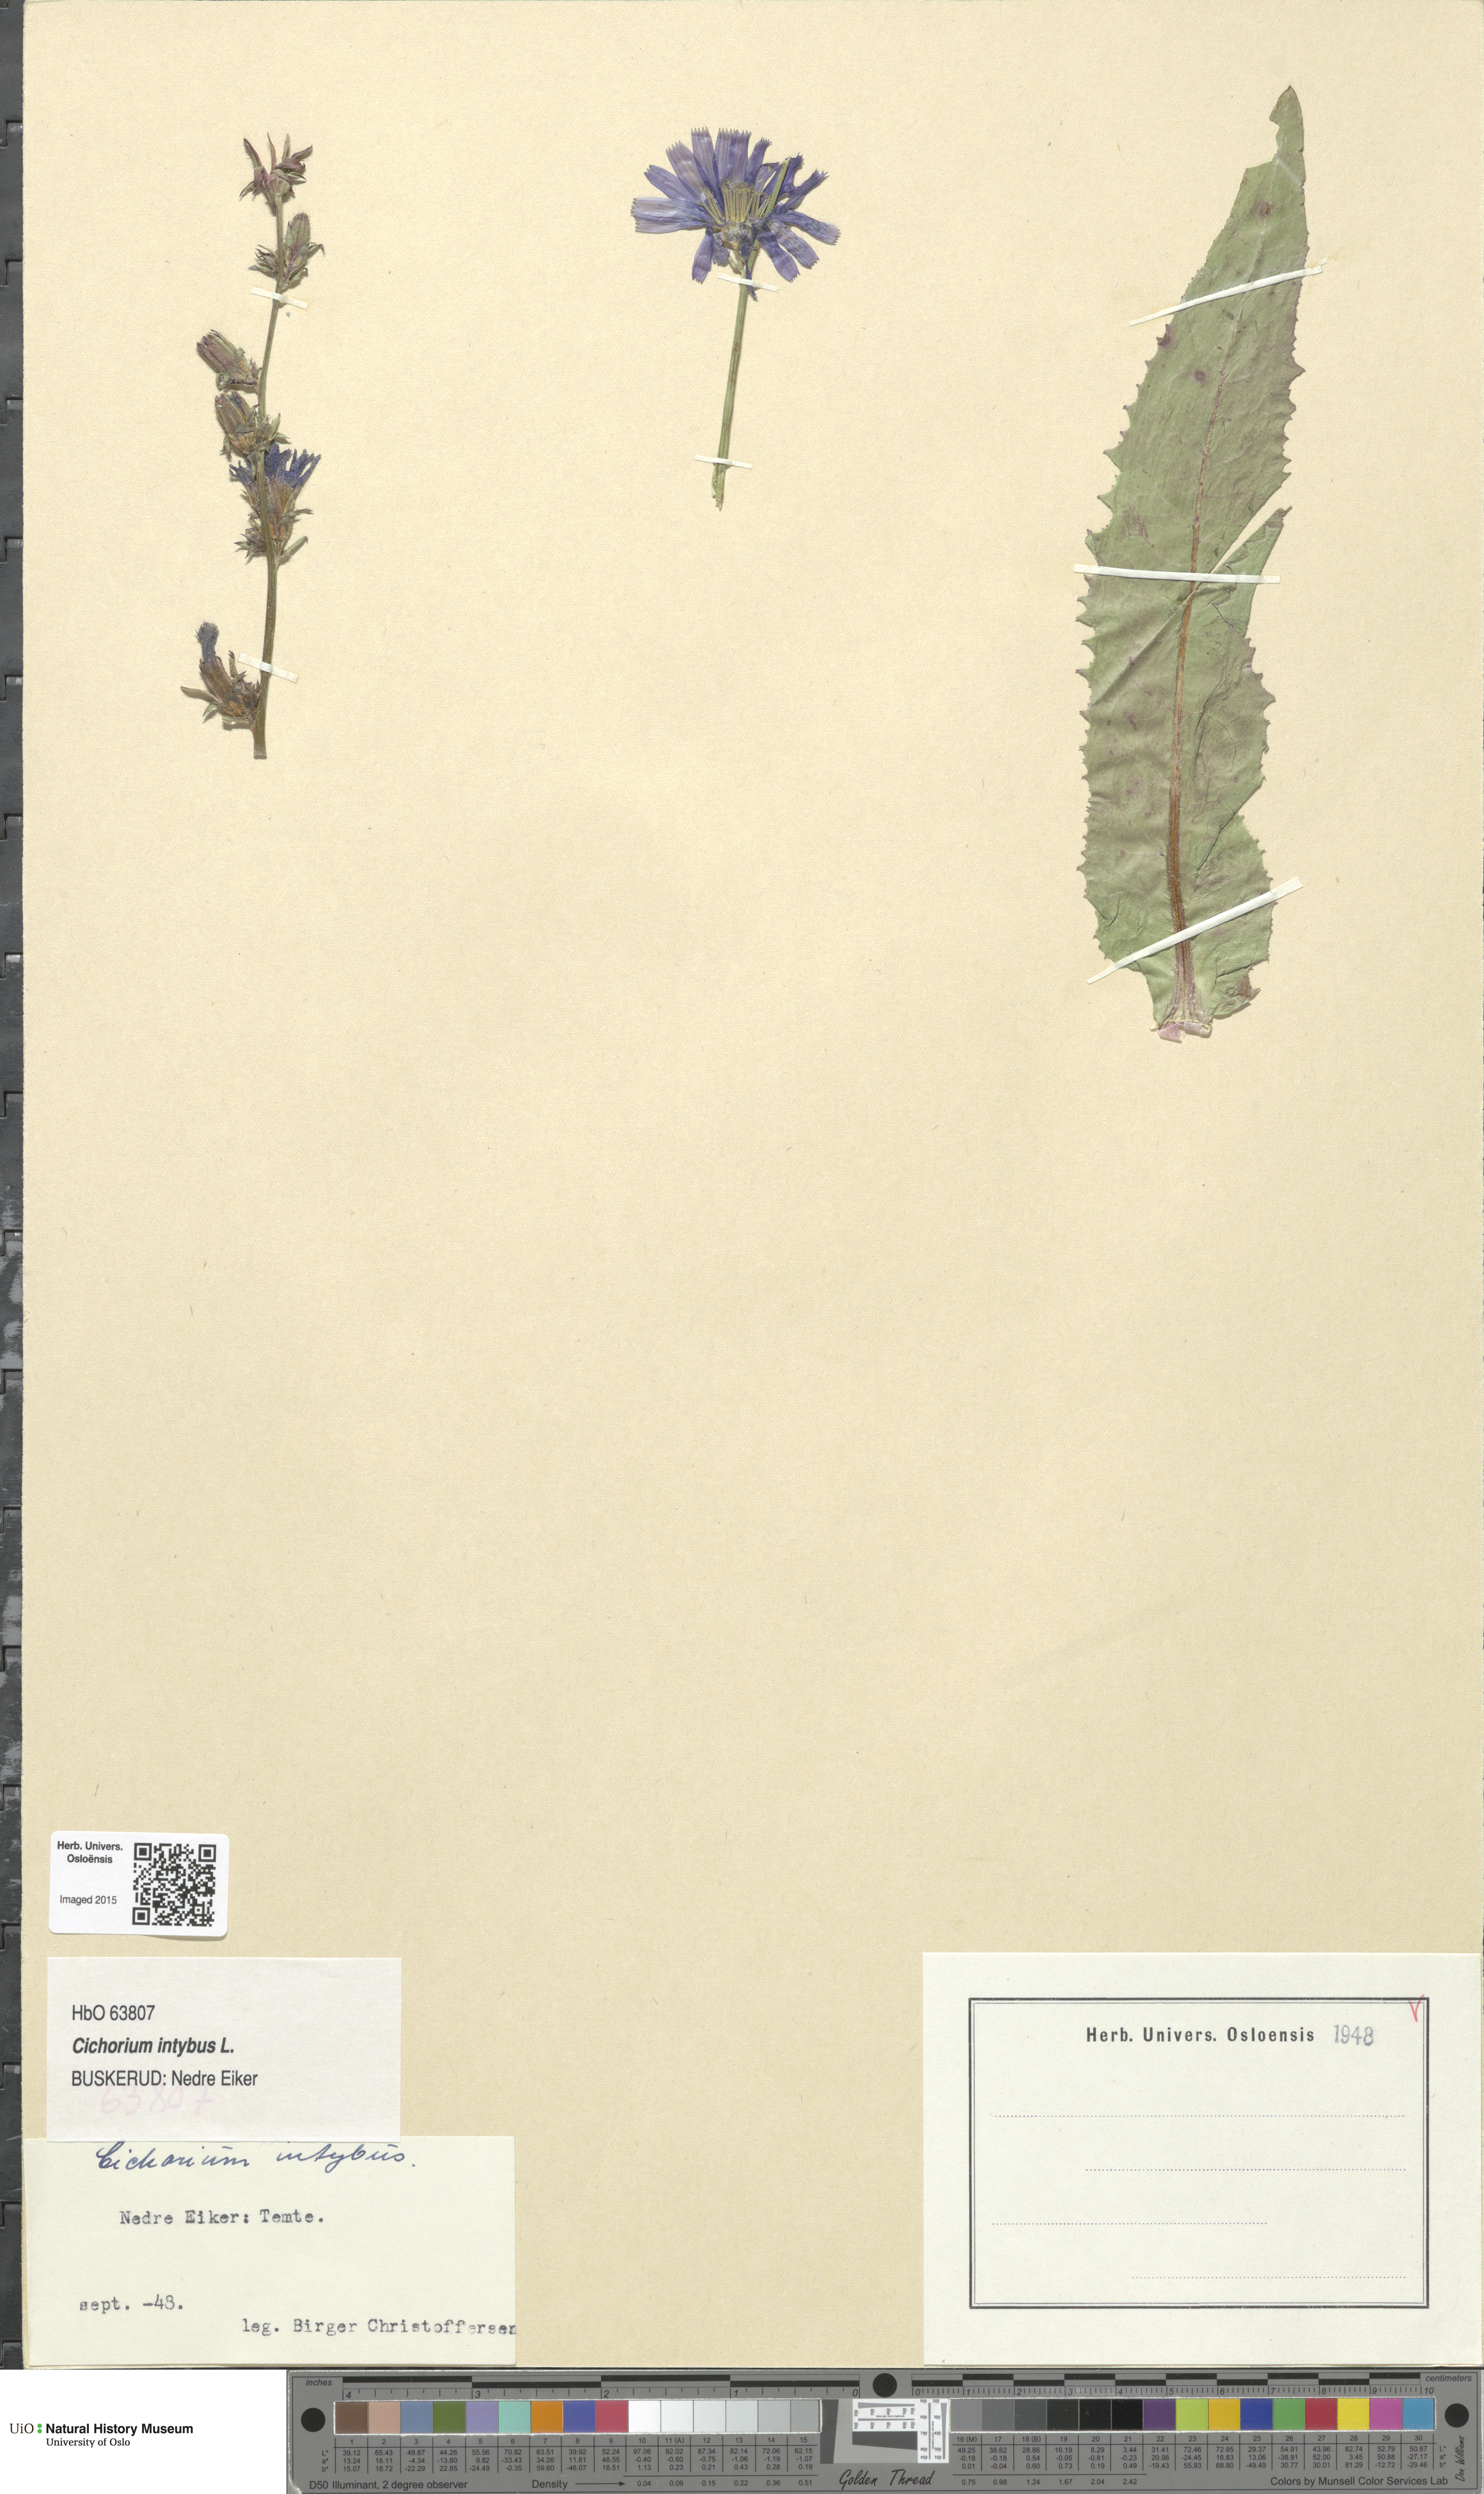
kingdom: Plantae
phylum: Tracheophyta
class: Magnoliopsida
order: Asterales
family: Asteraceae
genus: Cichorium
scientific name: Cichorium intybus
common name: Chicory
